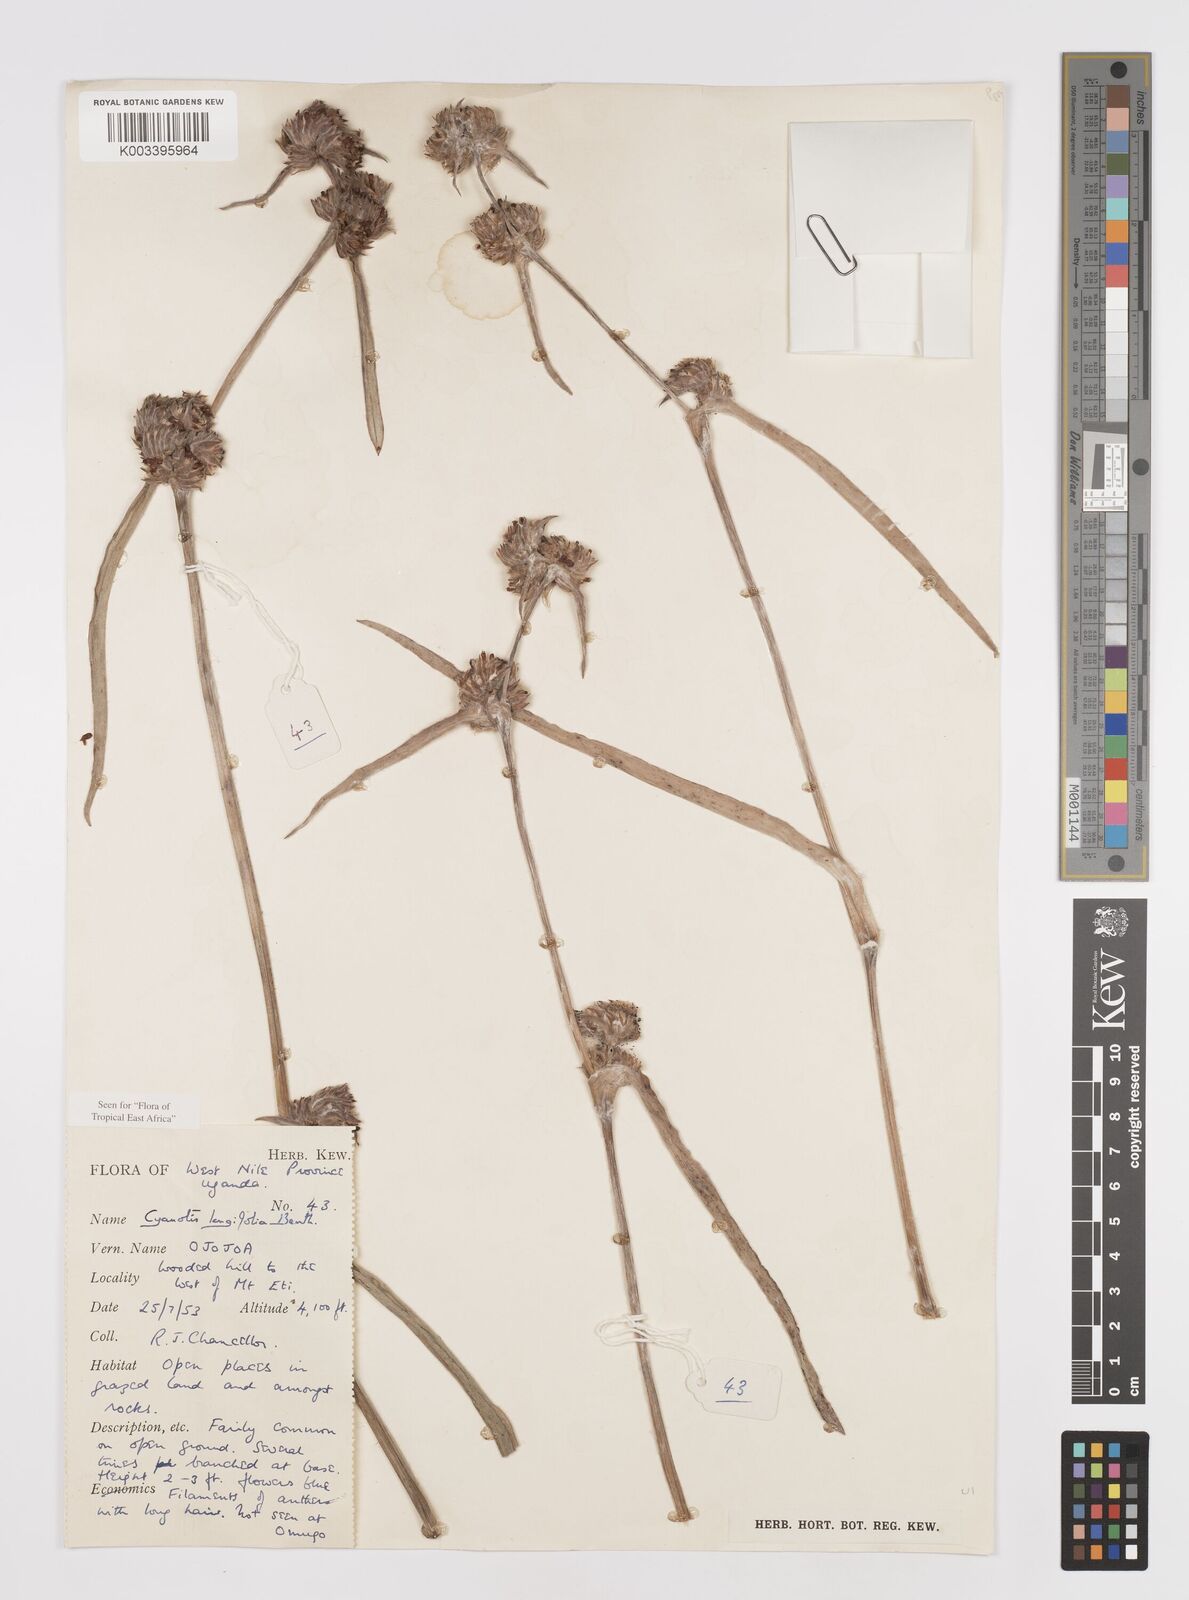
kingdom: Plantae
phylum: Tracheophyta
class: Liliopsida
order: Commelinales
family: Commelinaceae
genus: Cyanotis
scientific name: Cyanotis longifolia
